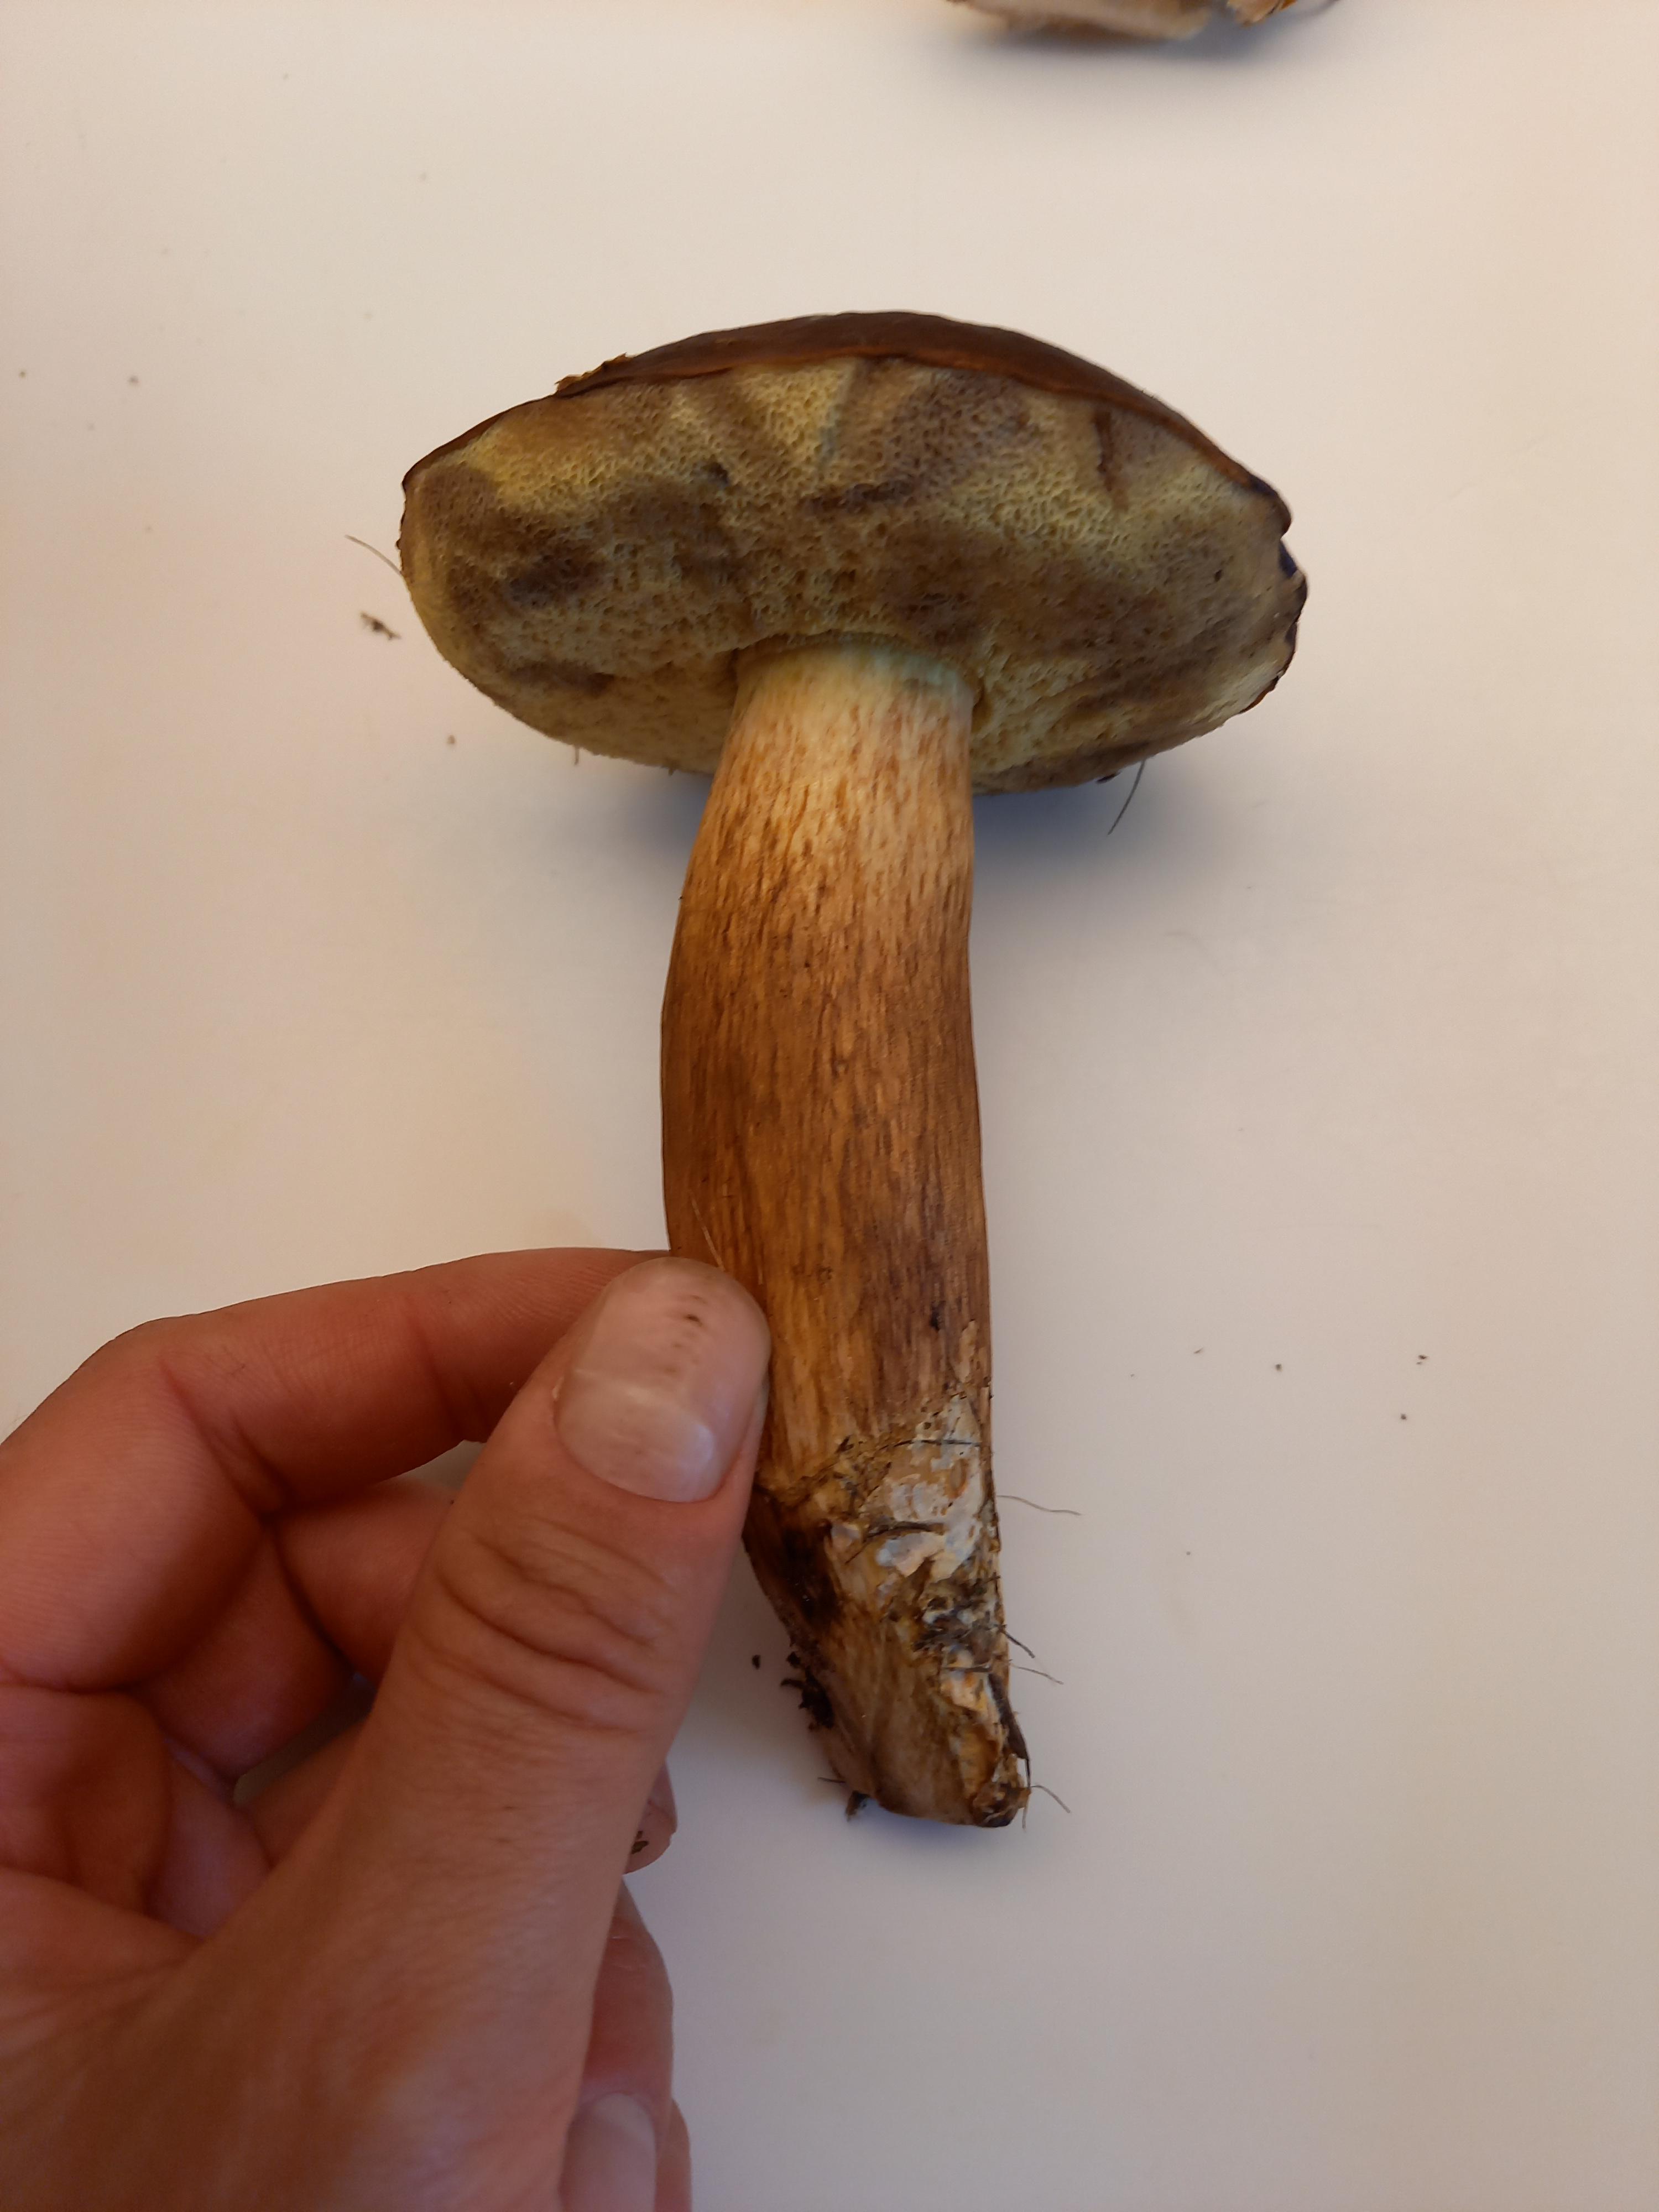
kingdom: Fungi
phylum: Basidiomycota
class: Agaricomycetes
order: Boletales
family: Boletaceae
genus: Imleria
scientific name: Imleria badia
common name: brunstokket rørhat
